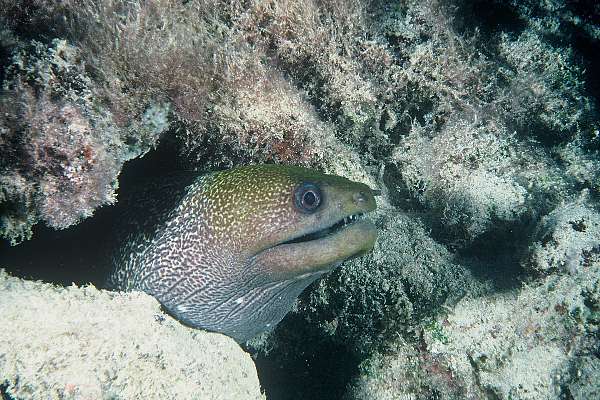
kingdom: Animalia
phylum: Chordata
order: Anguilliformes
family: Muraenidae
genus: Gymnothorax
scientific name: Gymnothorax undulatus
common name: Leopard moray
